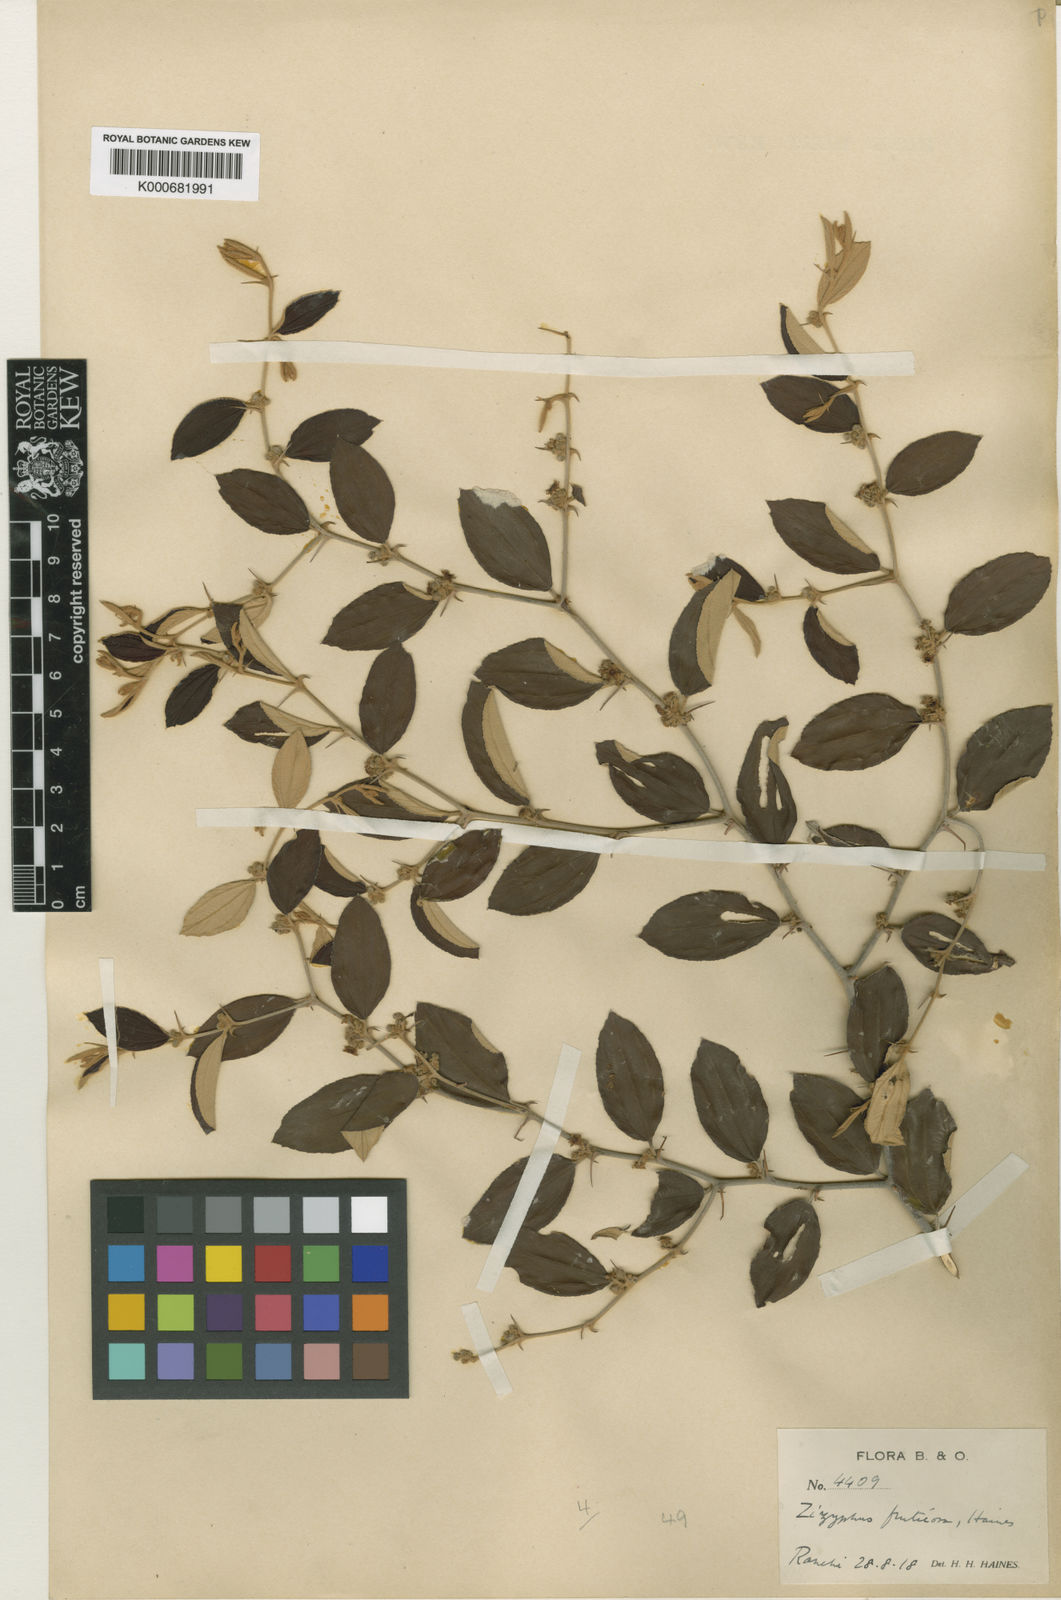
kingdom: Plantae
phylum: Tracheophyta
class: Magnoliopsida
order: Rosales
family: Rhamnaceae
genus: Ziziphus
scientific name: Ziziphus
